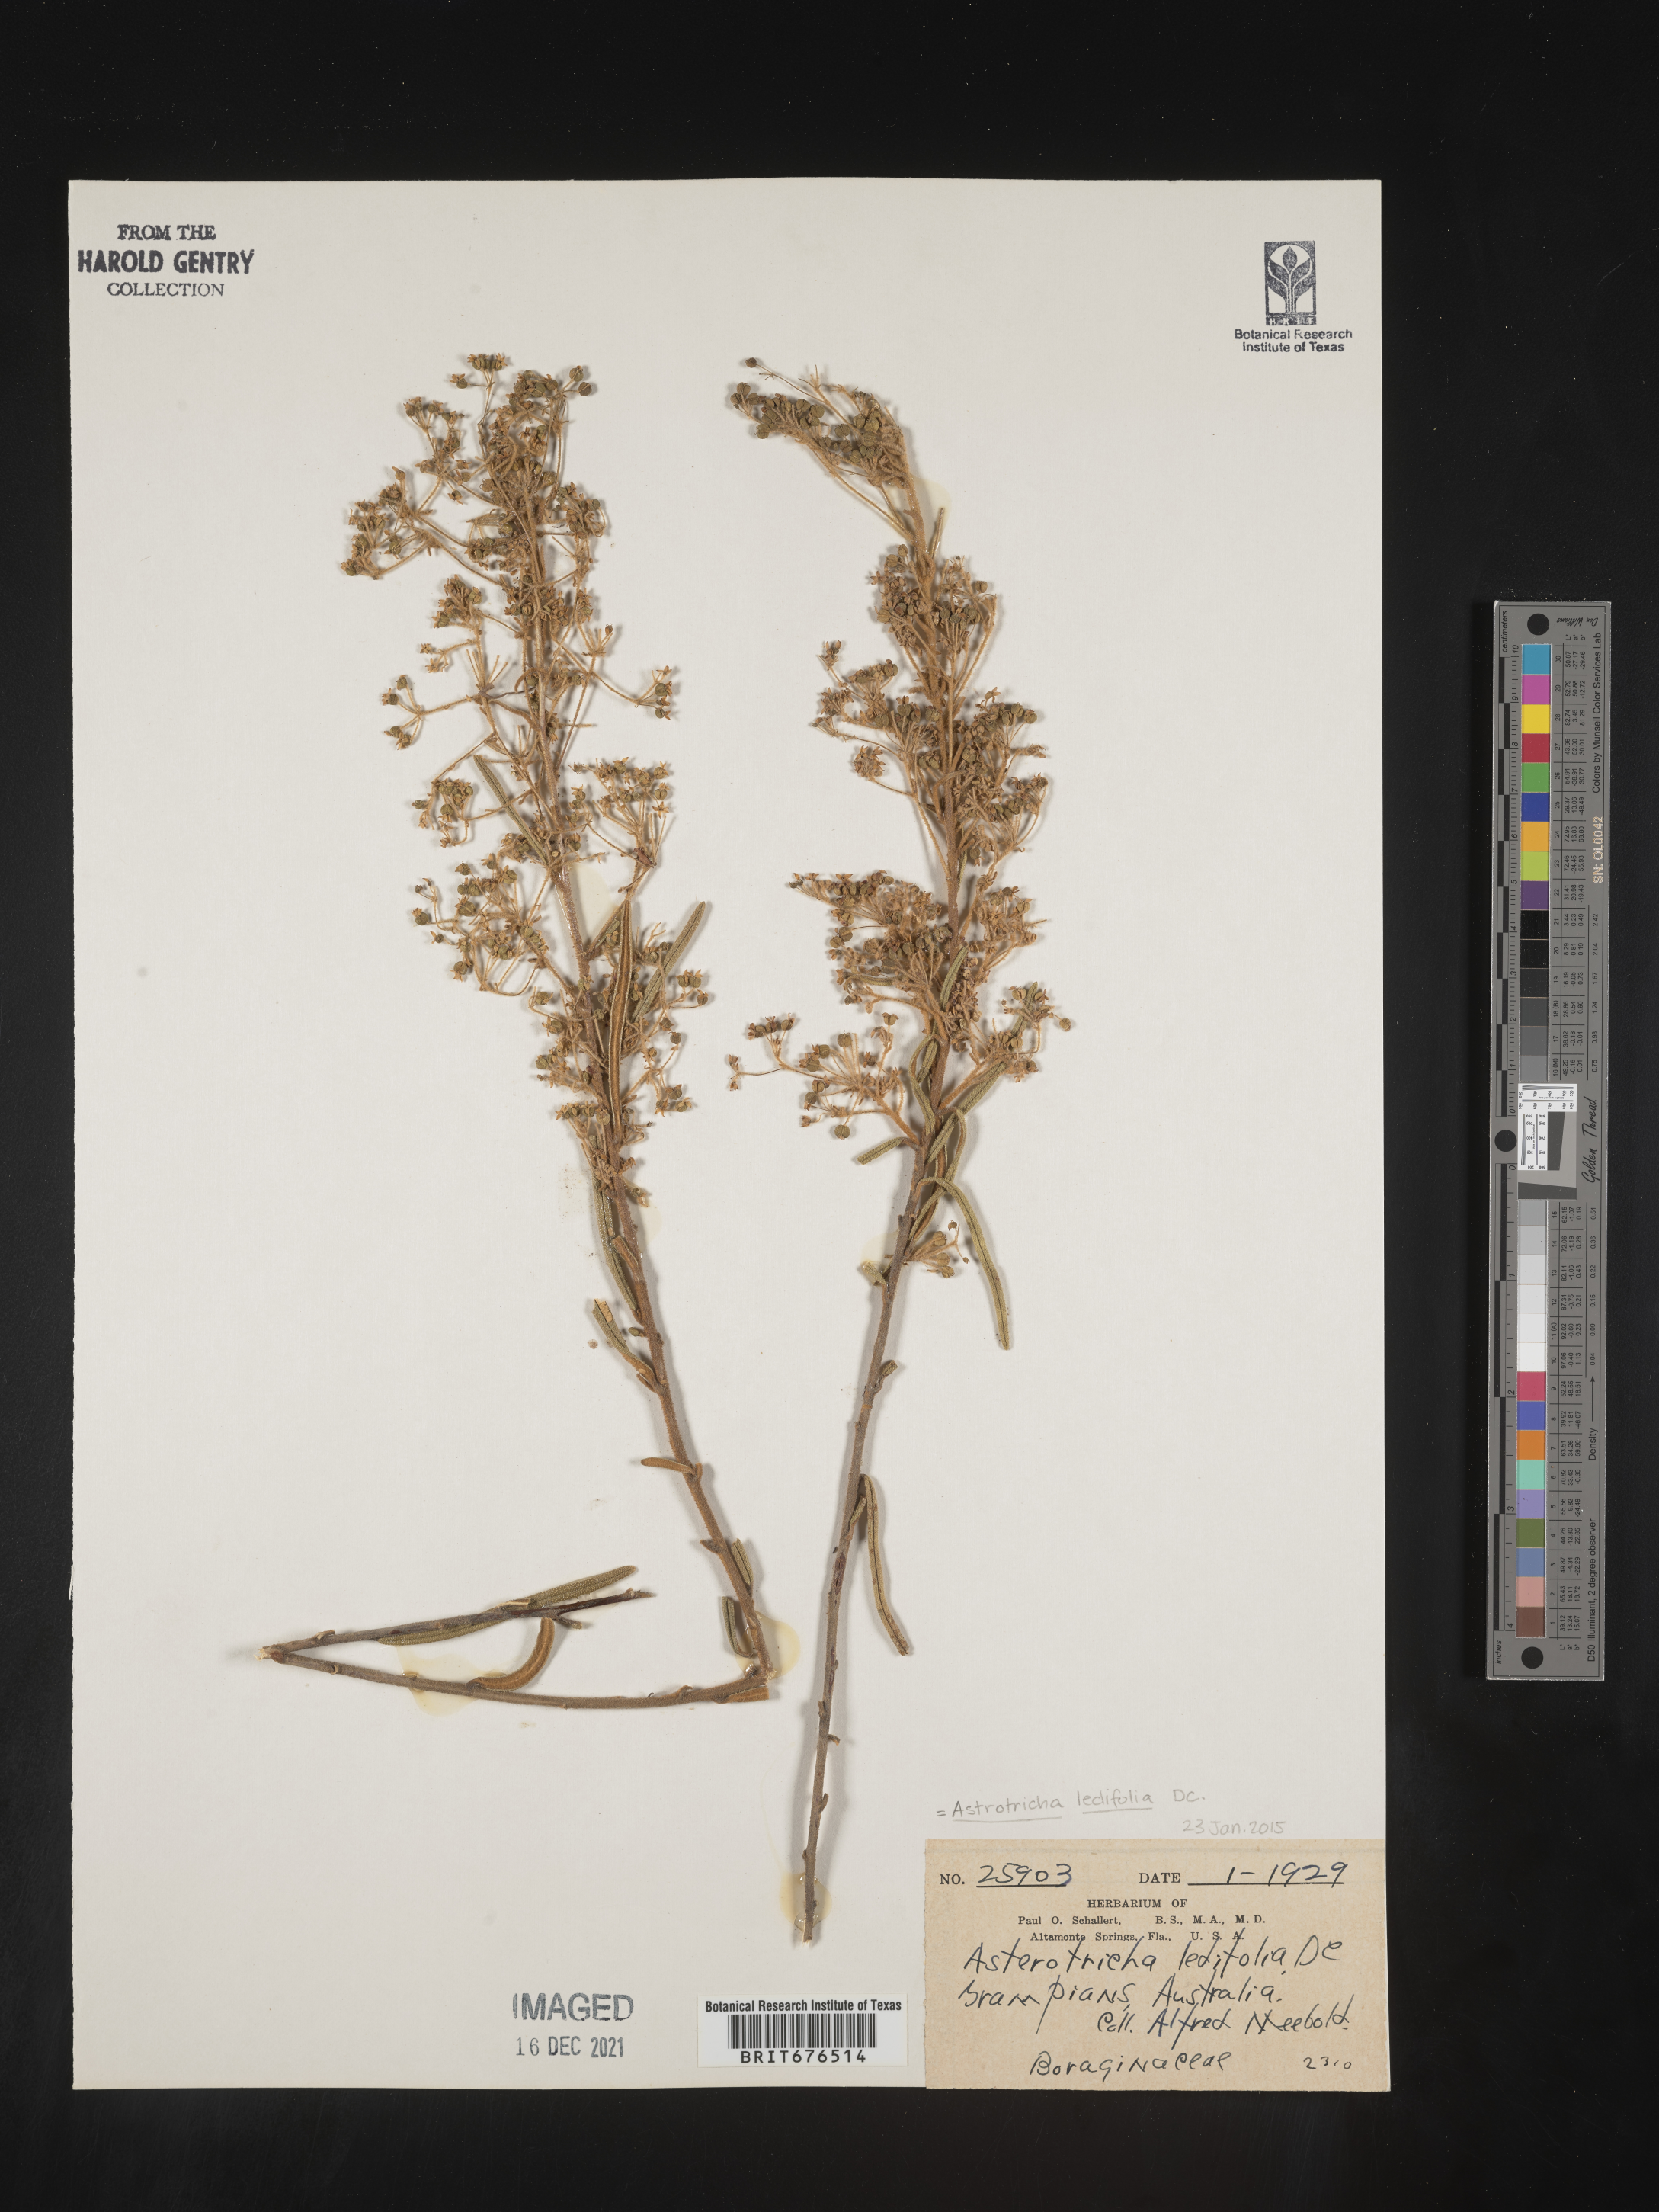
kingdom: Plantae
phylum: Tracheophyta
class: Magnoliopsida
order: Apiales
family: Araliaceae
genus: Astrotricha
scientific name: Astrotricha ledifolia
